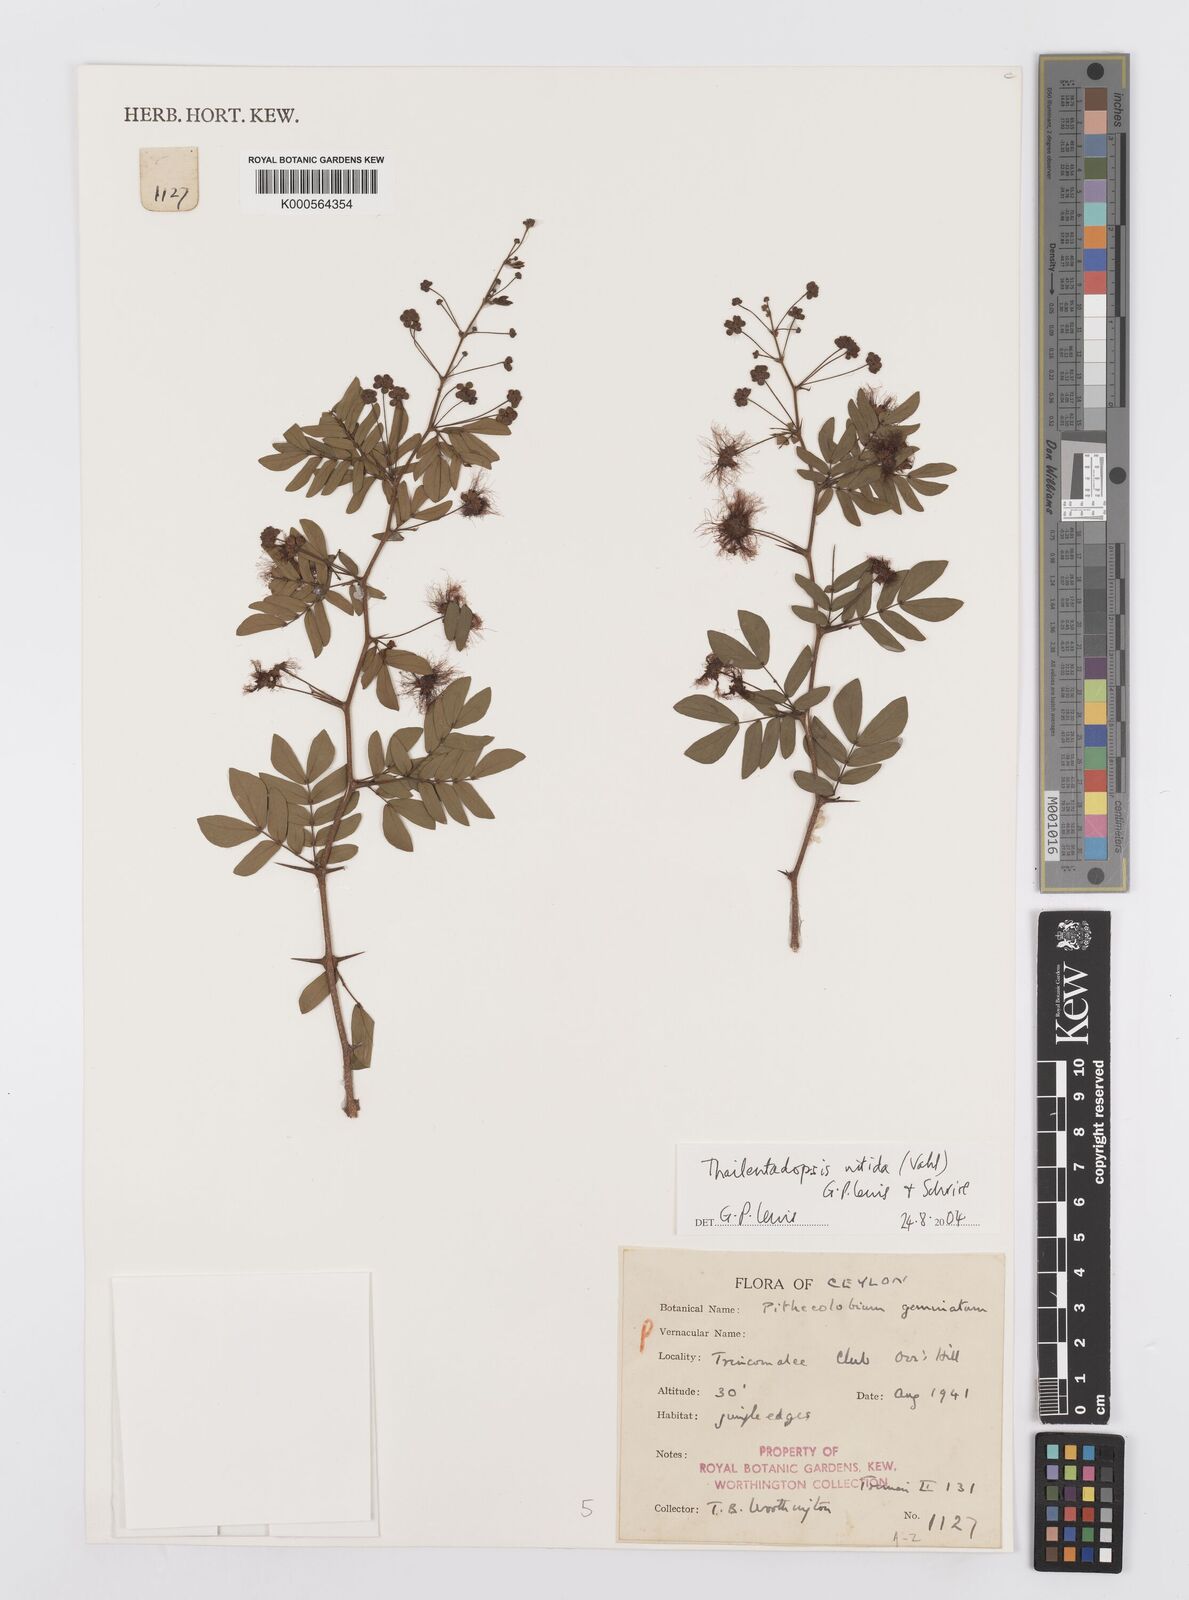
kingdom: Plantae
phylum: Tracheophyta
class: Magnoliopsida
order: Fabales
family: Fabaceae
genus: Thailentadopsis
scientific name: Thailentadopsis nitida
